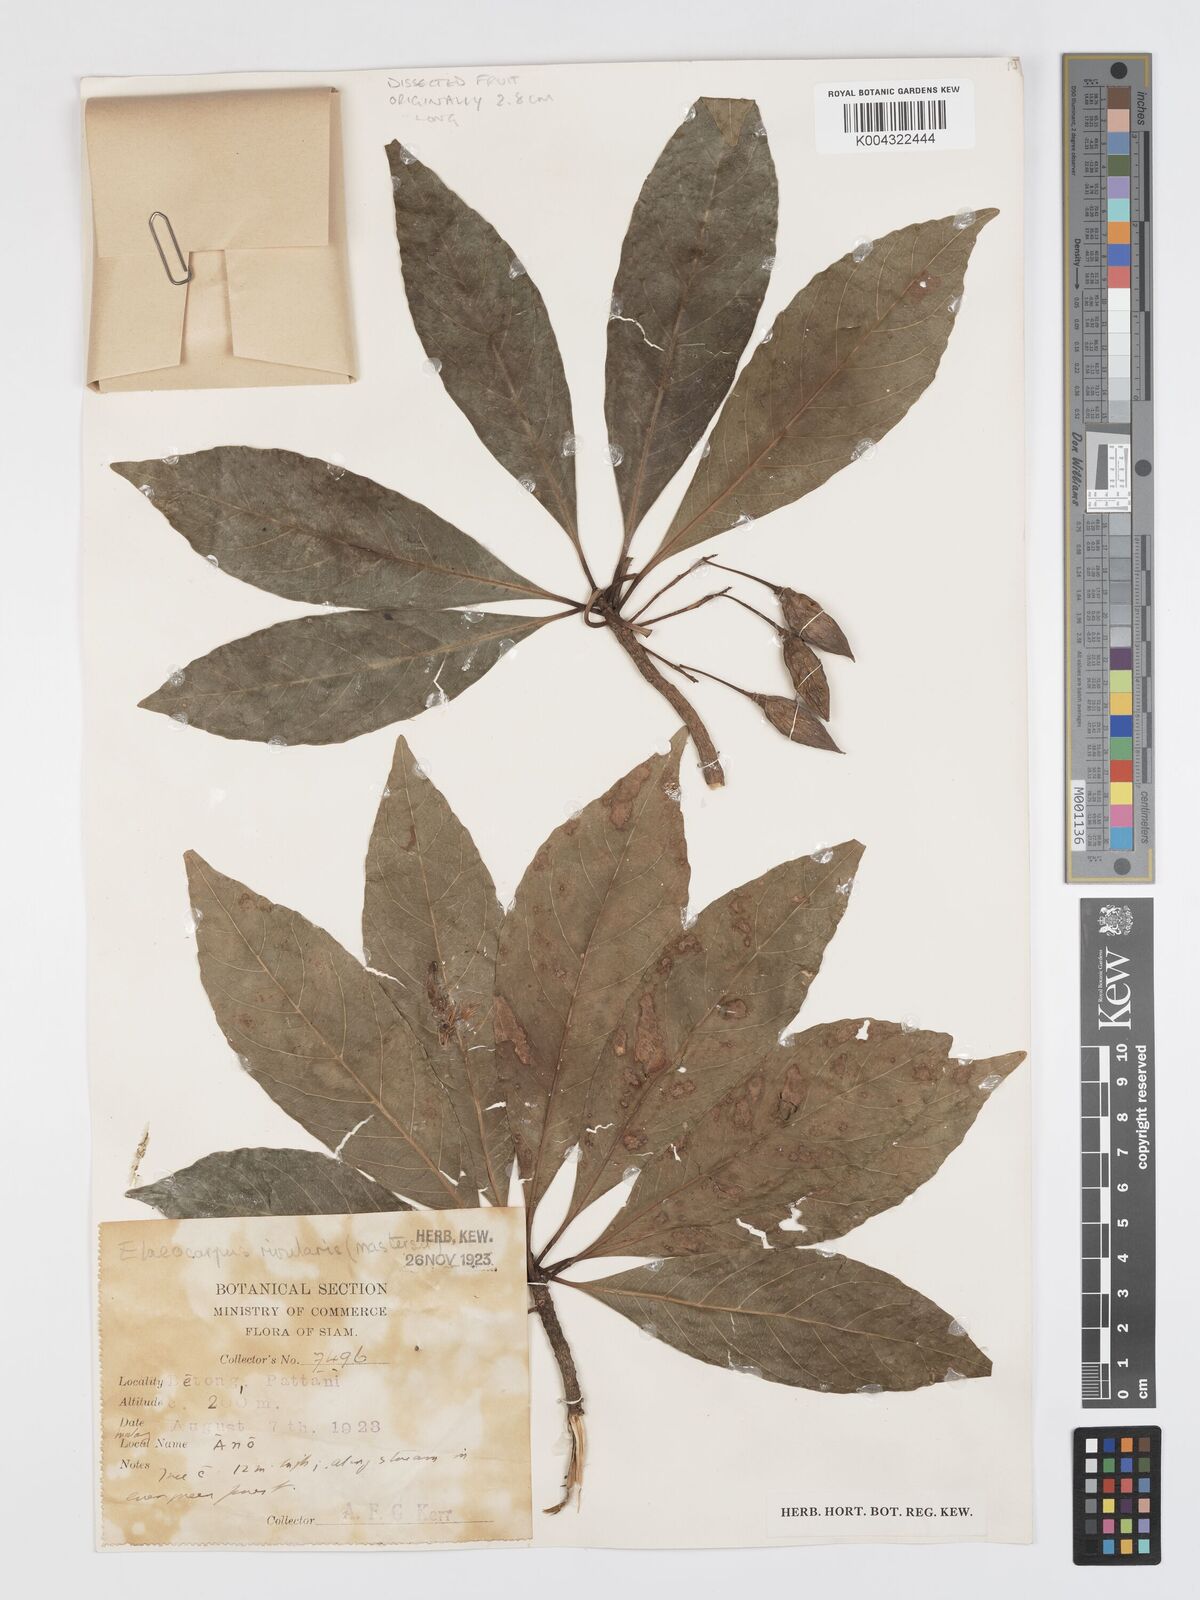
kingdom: Plantae
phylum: Tracheophyta
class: Magnoliopsida
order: Oxalidales
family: Elaeocarpaceae
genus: Elaeocarpus
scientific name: Elaeocarpus rivularis
